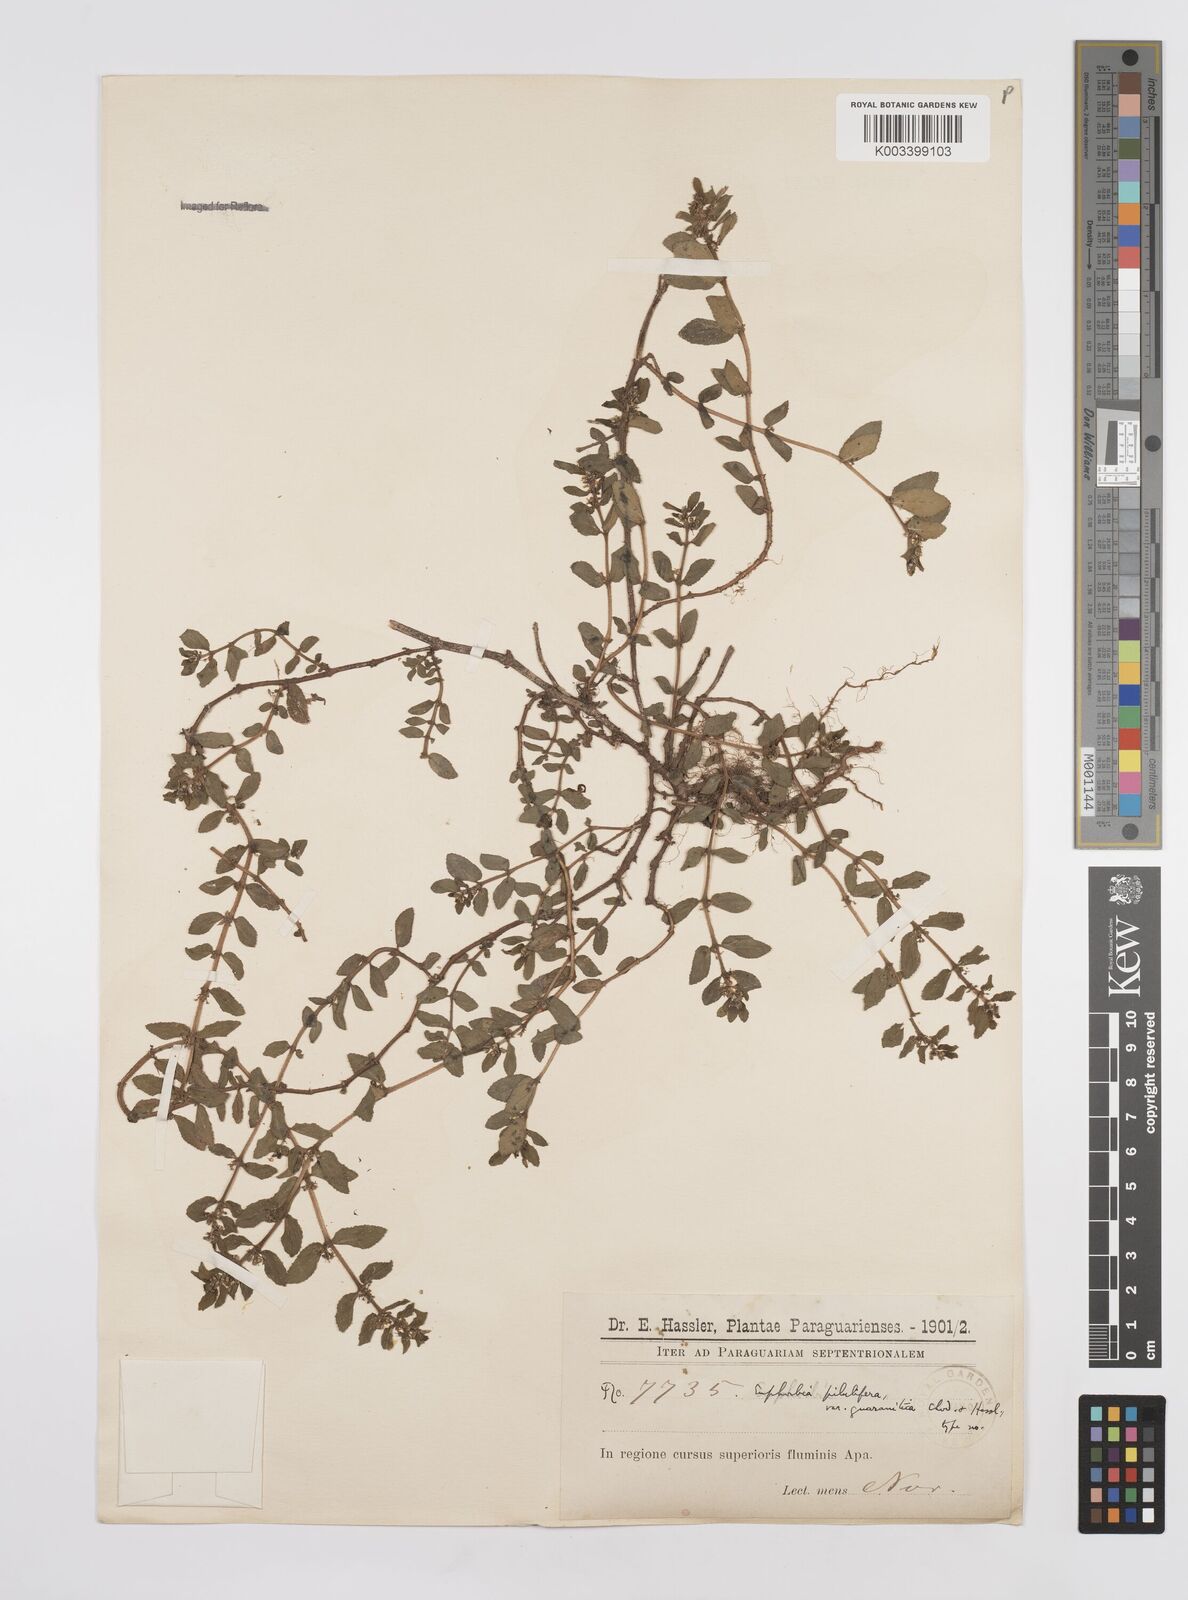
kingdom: Plantae
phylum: Tracheophyta
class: Magnoliopsida
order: Malpighiales
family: Euphorbiaceae
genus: Euphorbia
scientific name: Euphorbia hirta
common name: Pillpod sandmat
